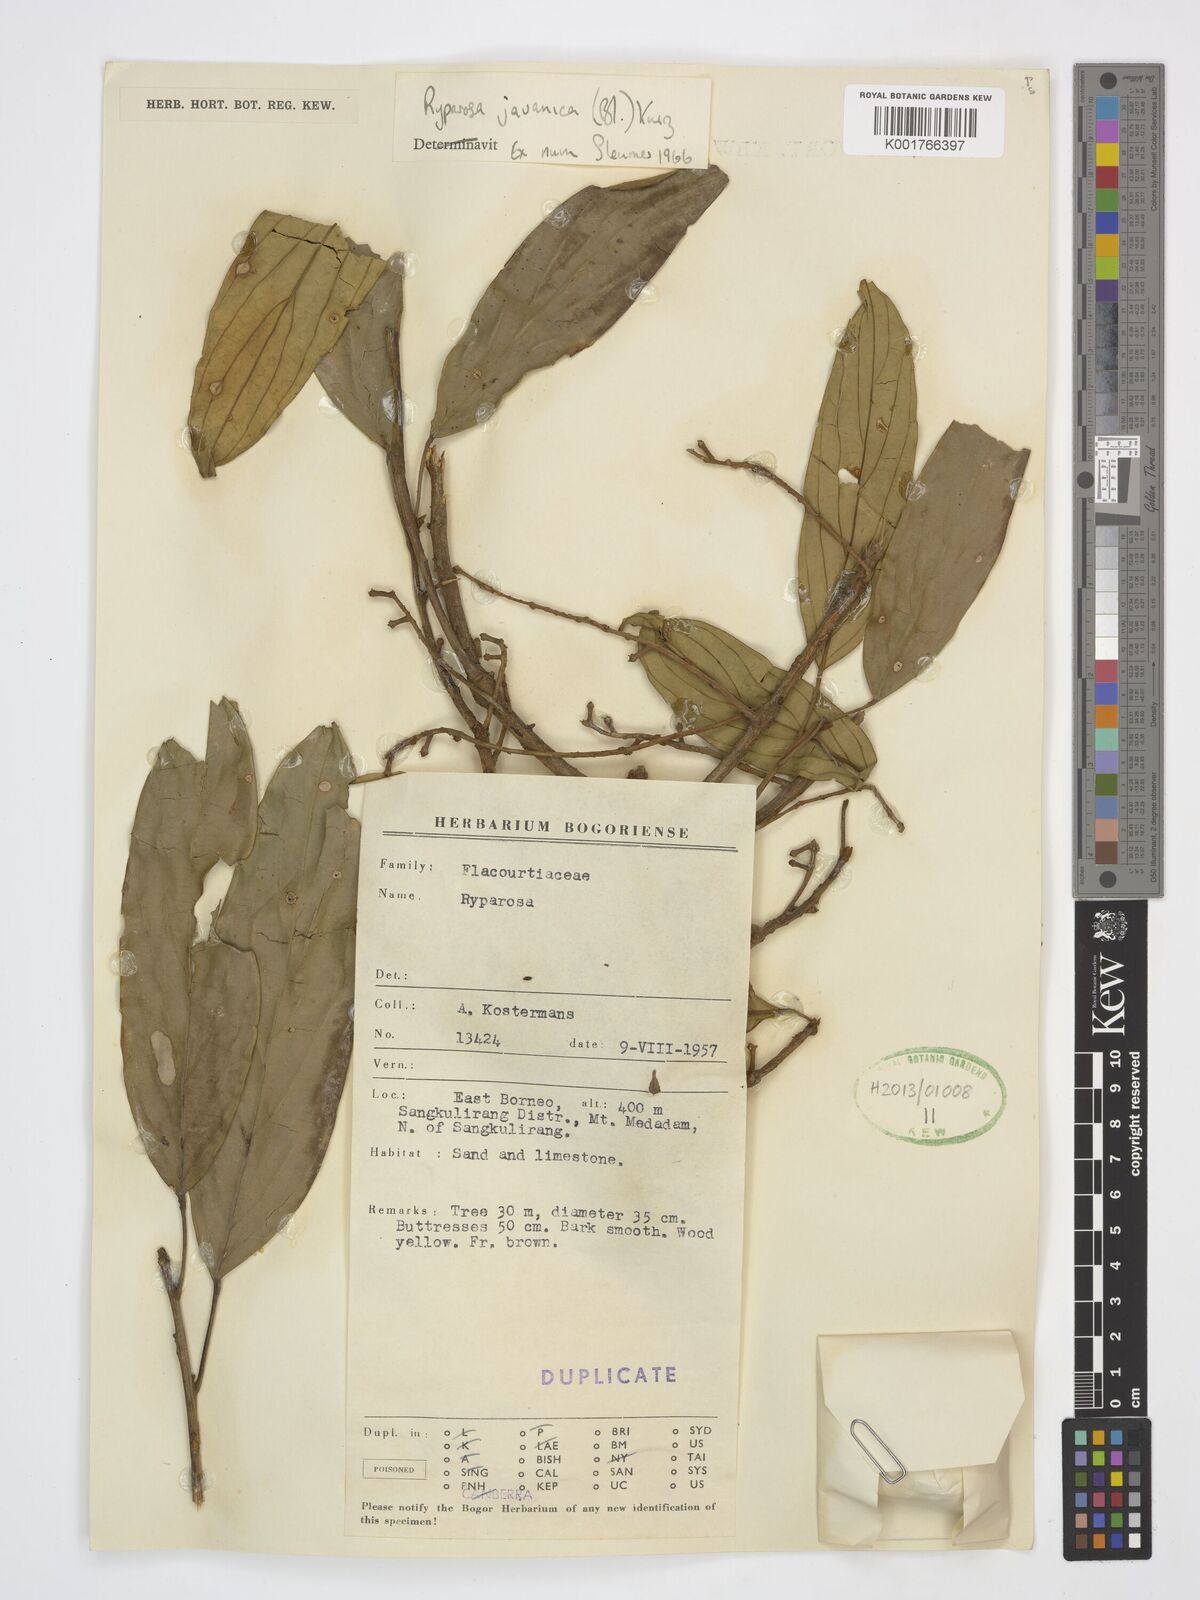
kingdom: Plantae
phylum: Tracheophyta
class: Magnoliopsida
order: Malpighiales
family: Achariaceae
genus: Ryparosa
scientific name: Ryparosa javanica
